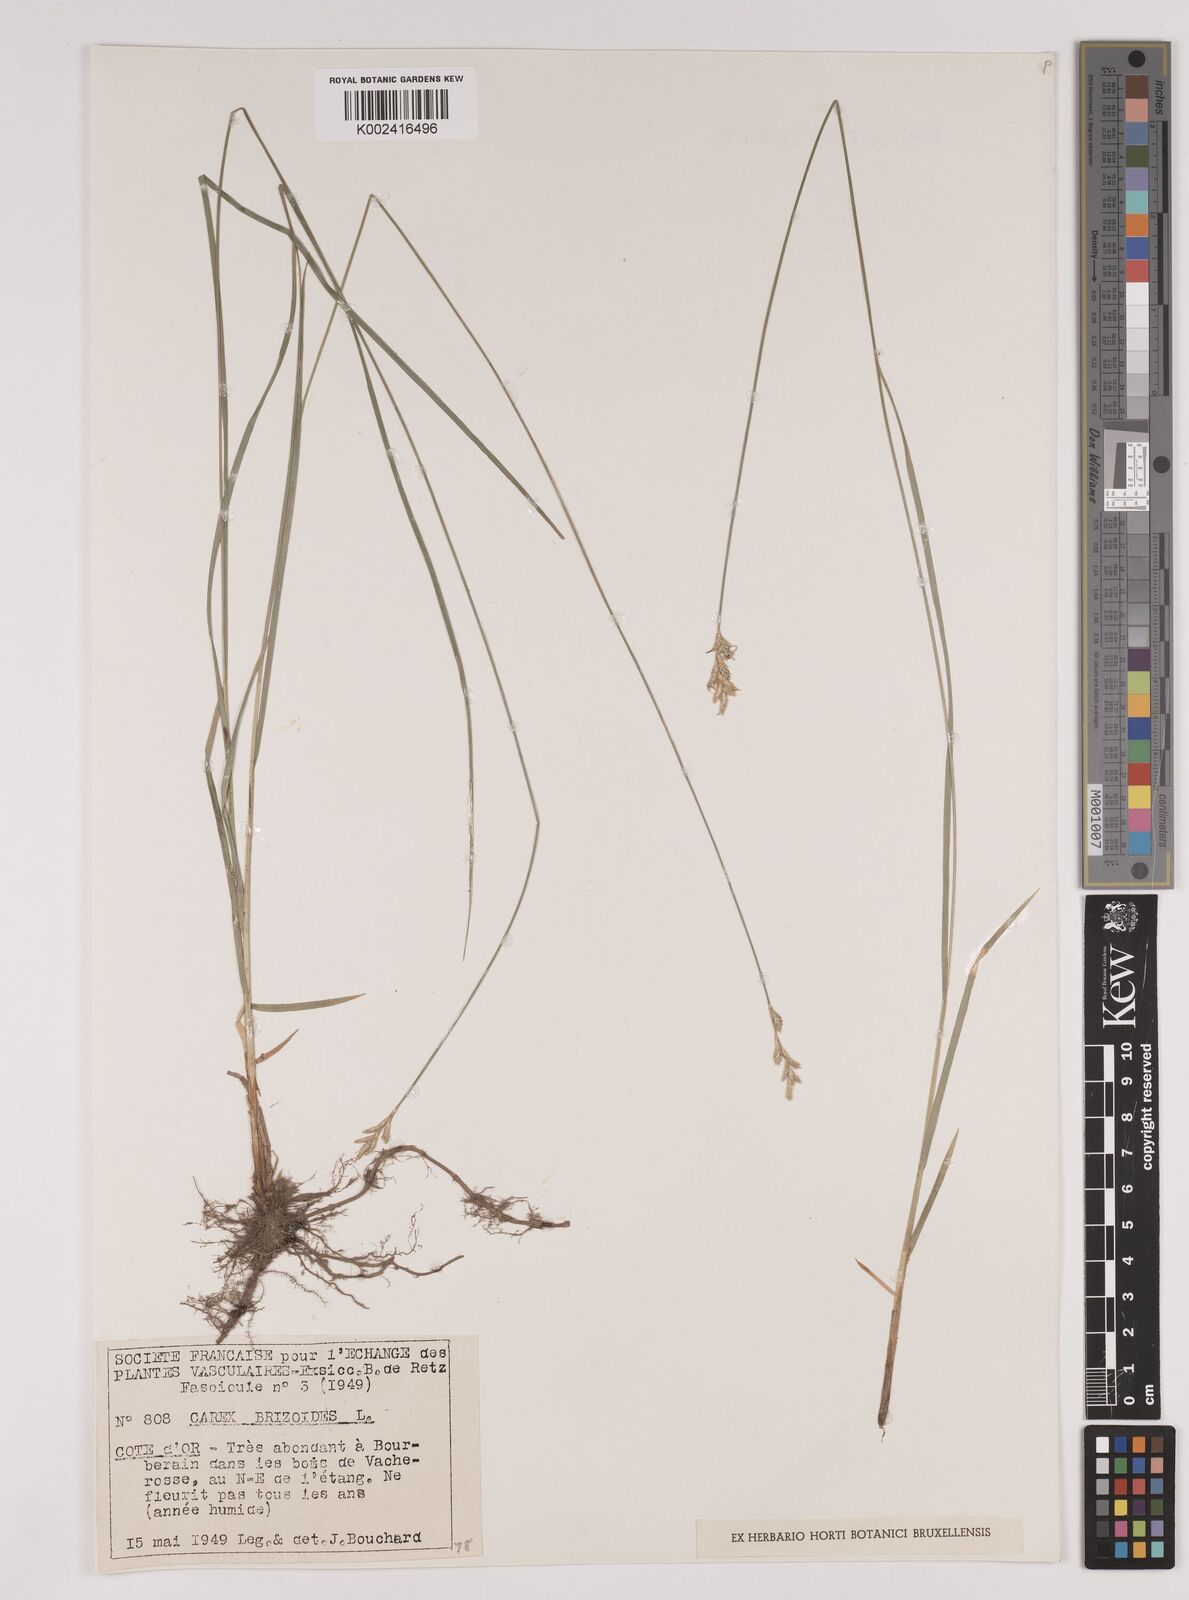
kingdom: Plantae
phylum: Tracheophyta
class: Liliopsida
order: Poales
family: Cyperaceae
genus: Carex
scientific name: Carex brizoides
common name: Quaking-grass sedge
